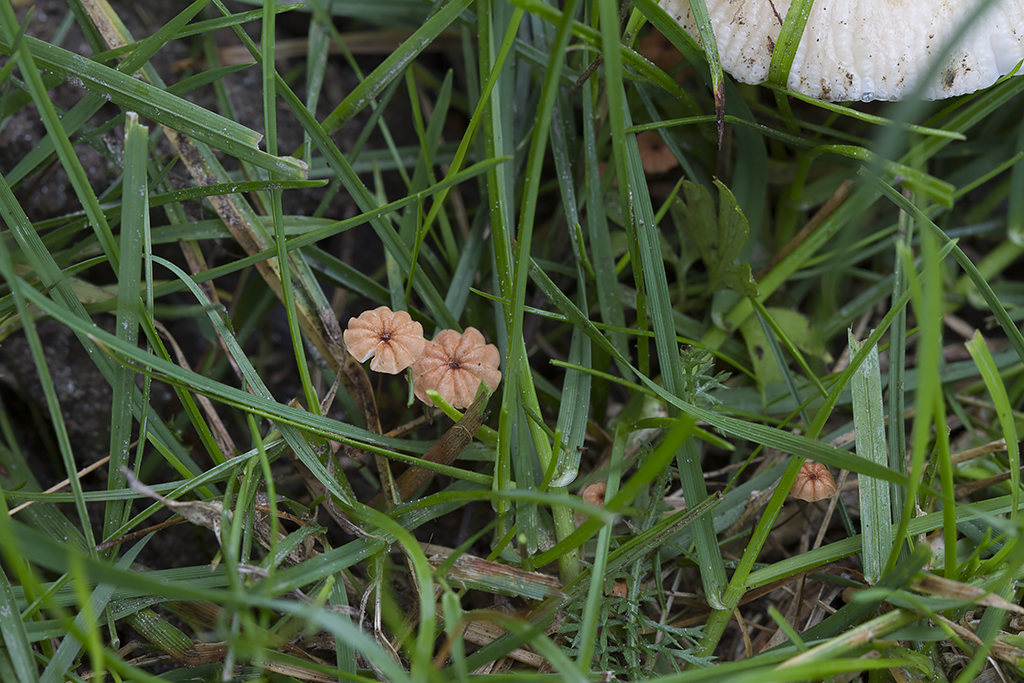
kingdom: Fungi
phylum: Basidiomycota
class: Agaricomycetes
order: Agaricales
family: Marasmiaceae
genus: Marasmius
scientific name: Marasmius curreyi
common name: teglrød bruskhat
